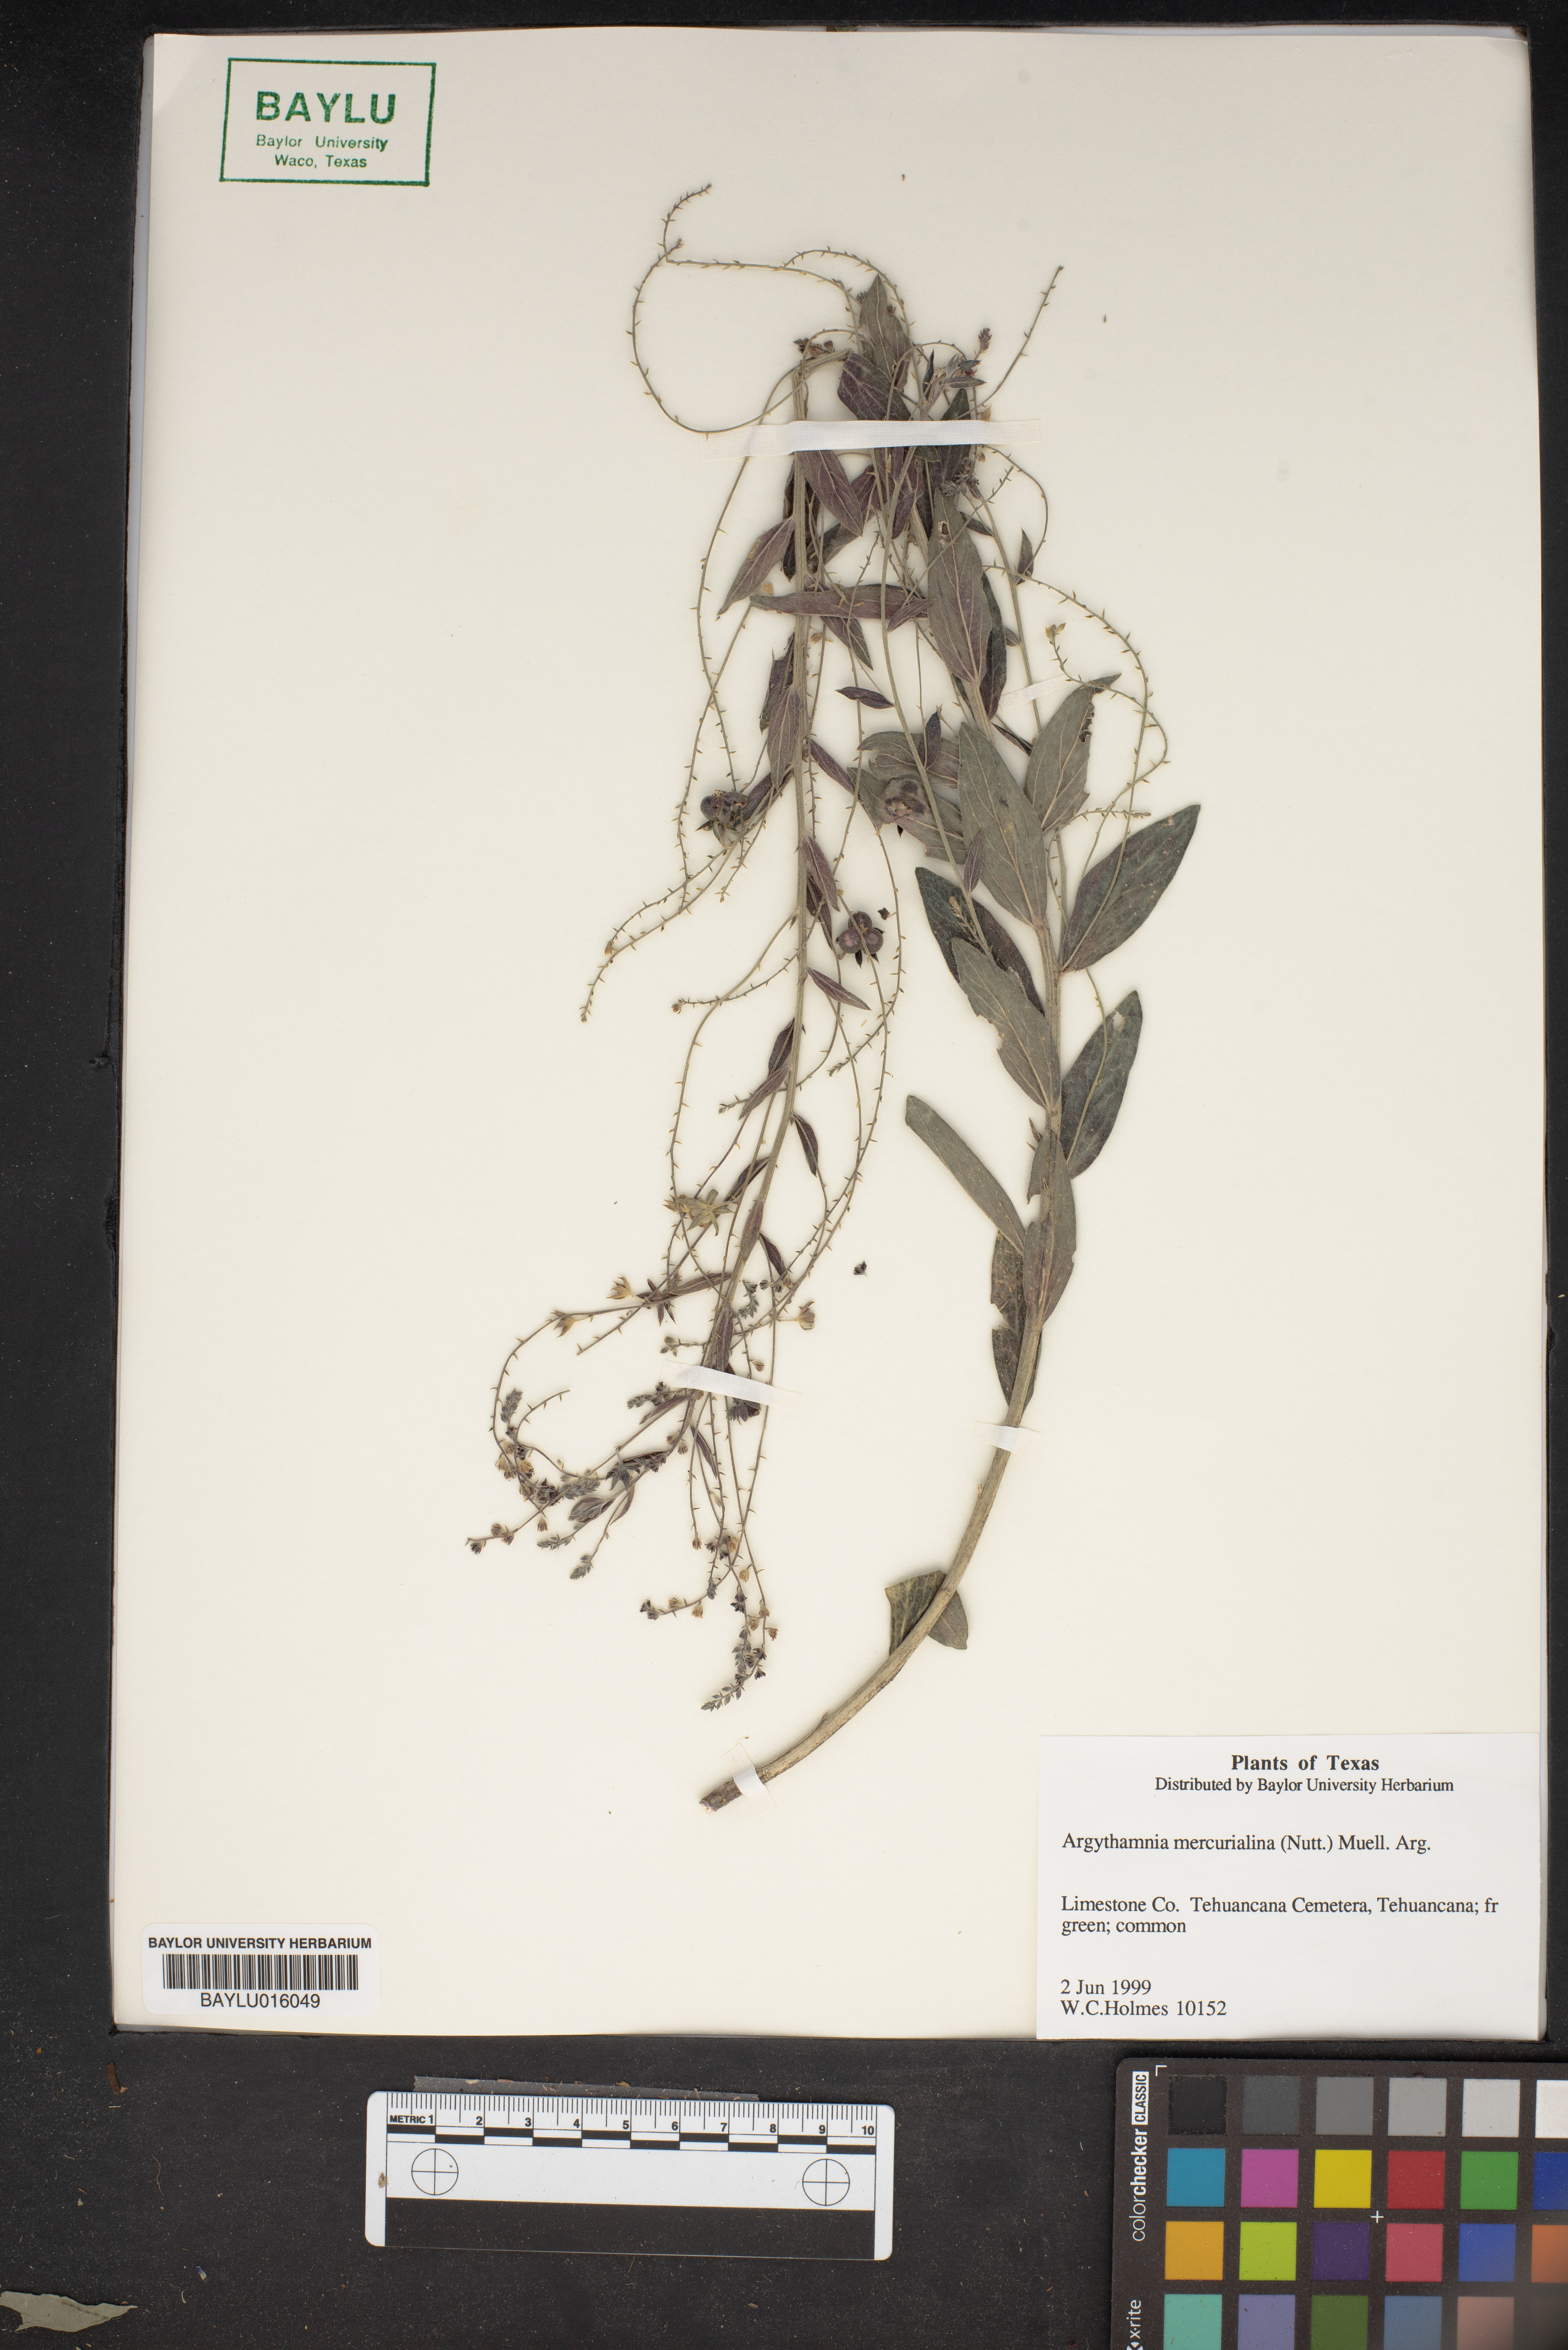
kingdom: Plantae
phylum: Tracheophyta
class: Magnoliopsida
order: Malpighiales
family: Euphorbiaceae
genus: Ditaxis
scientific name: Ditaxis mercurialina
